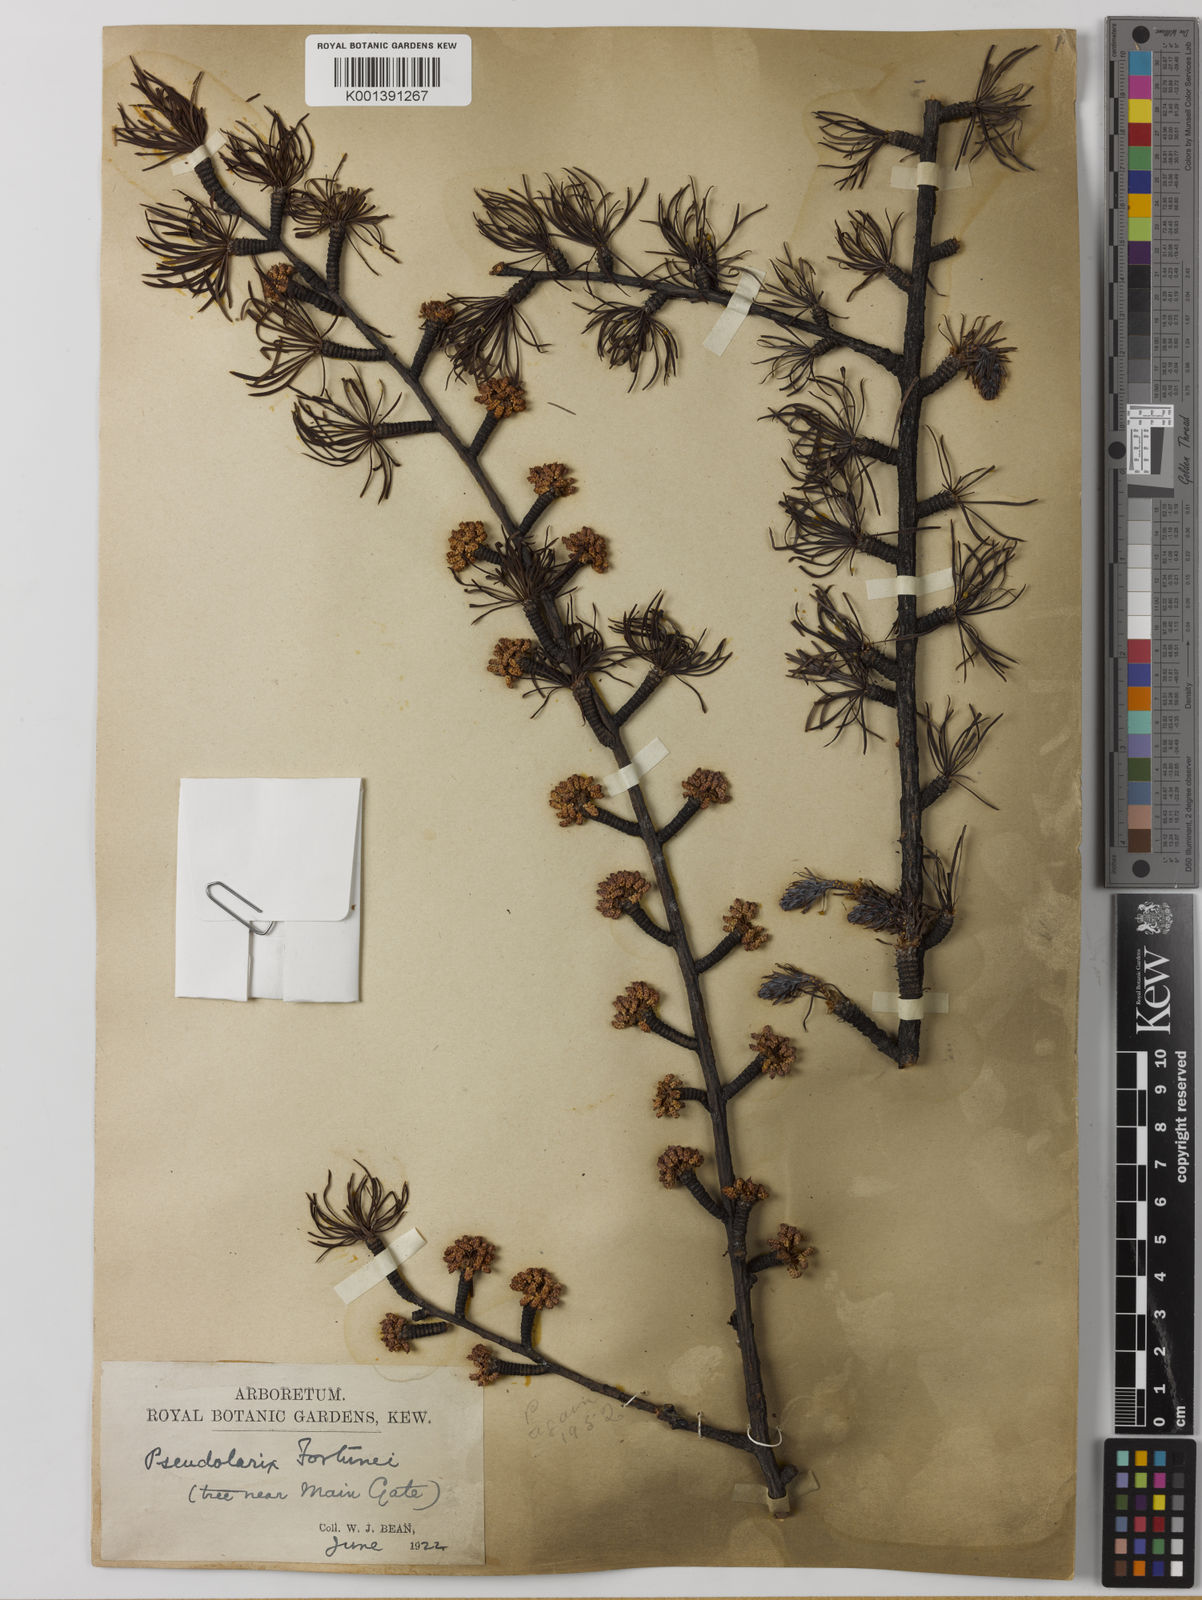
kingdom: Plantae
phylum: Tracheophyta
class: Pinopsida
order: Pinales
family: Pinaceae
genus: Pseudolarix
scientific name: Pseudolarix amabilis
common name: Chinese golden larch
